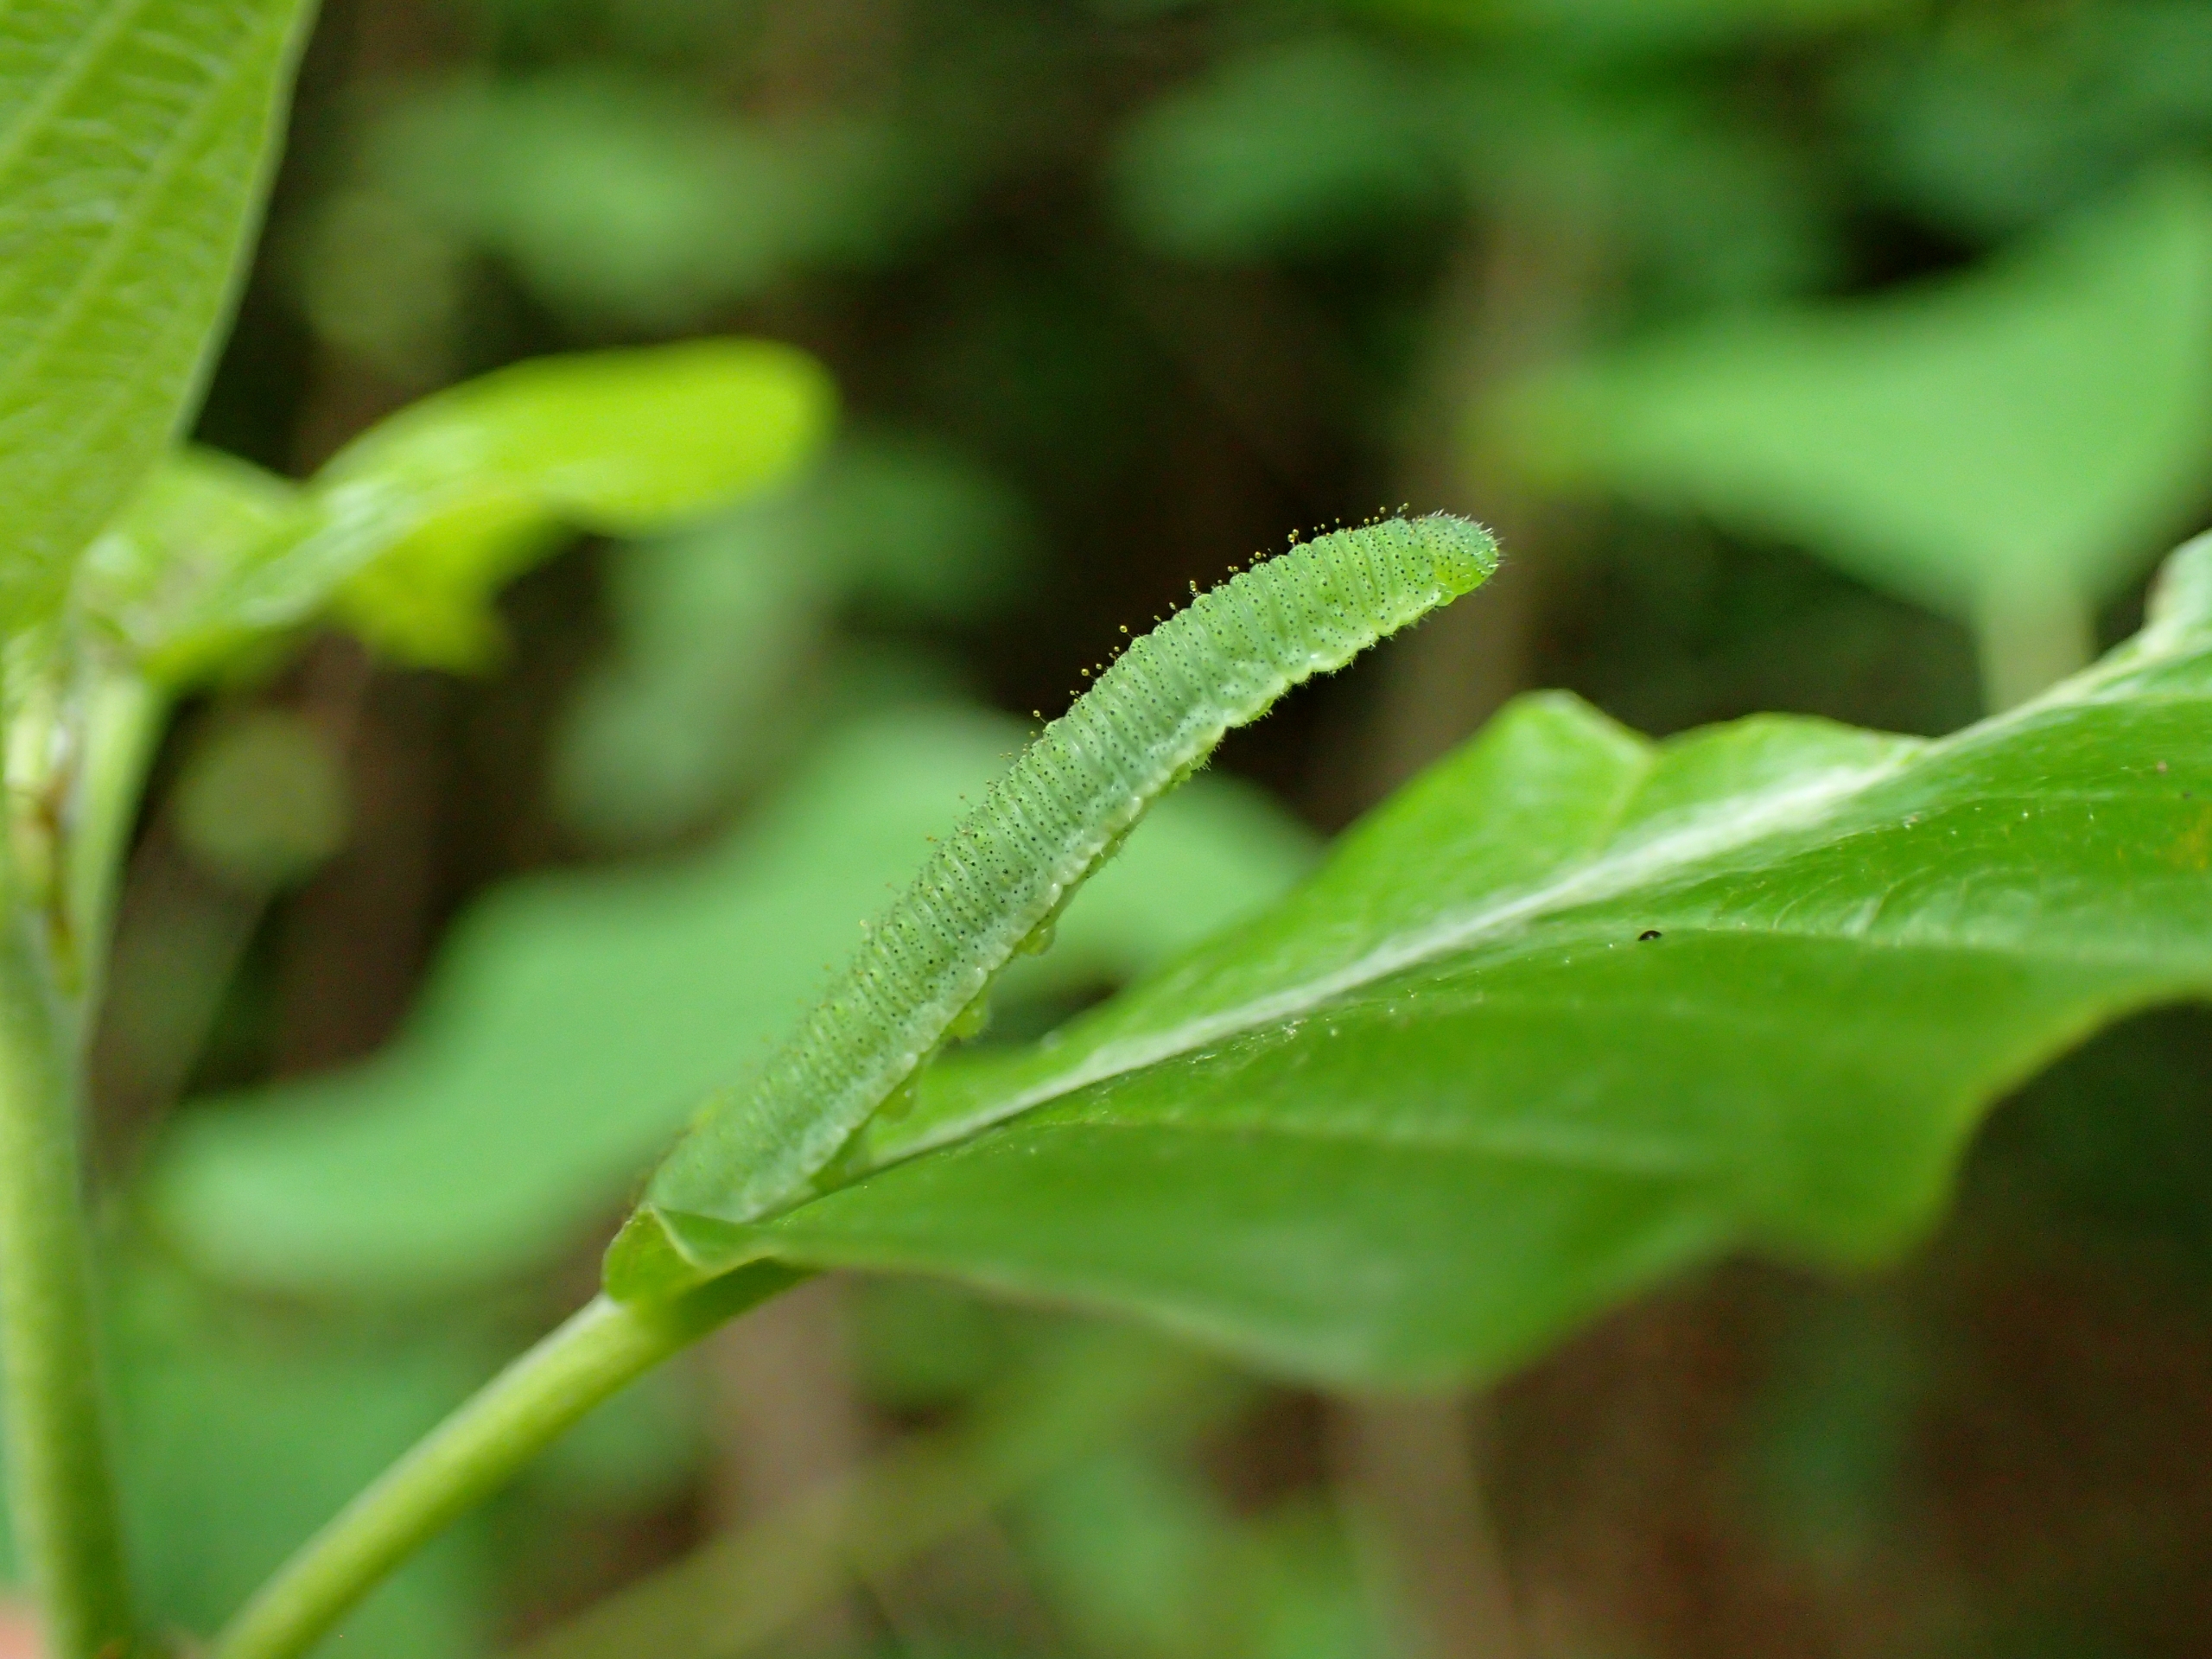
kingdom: Animalia
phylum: Arthropoda
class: Insecta
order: Lepidoptera
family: Pieridae
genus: Gonepteryx
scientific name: Gonepteryx rhamni
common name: Citronsommerfugl
